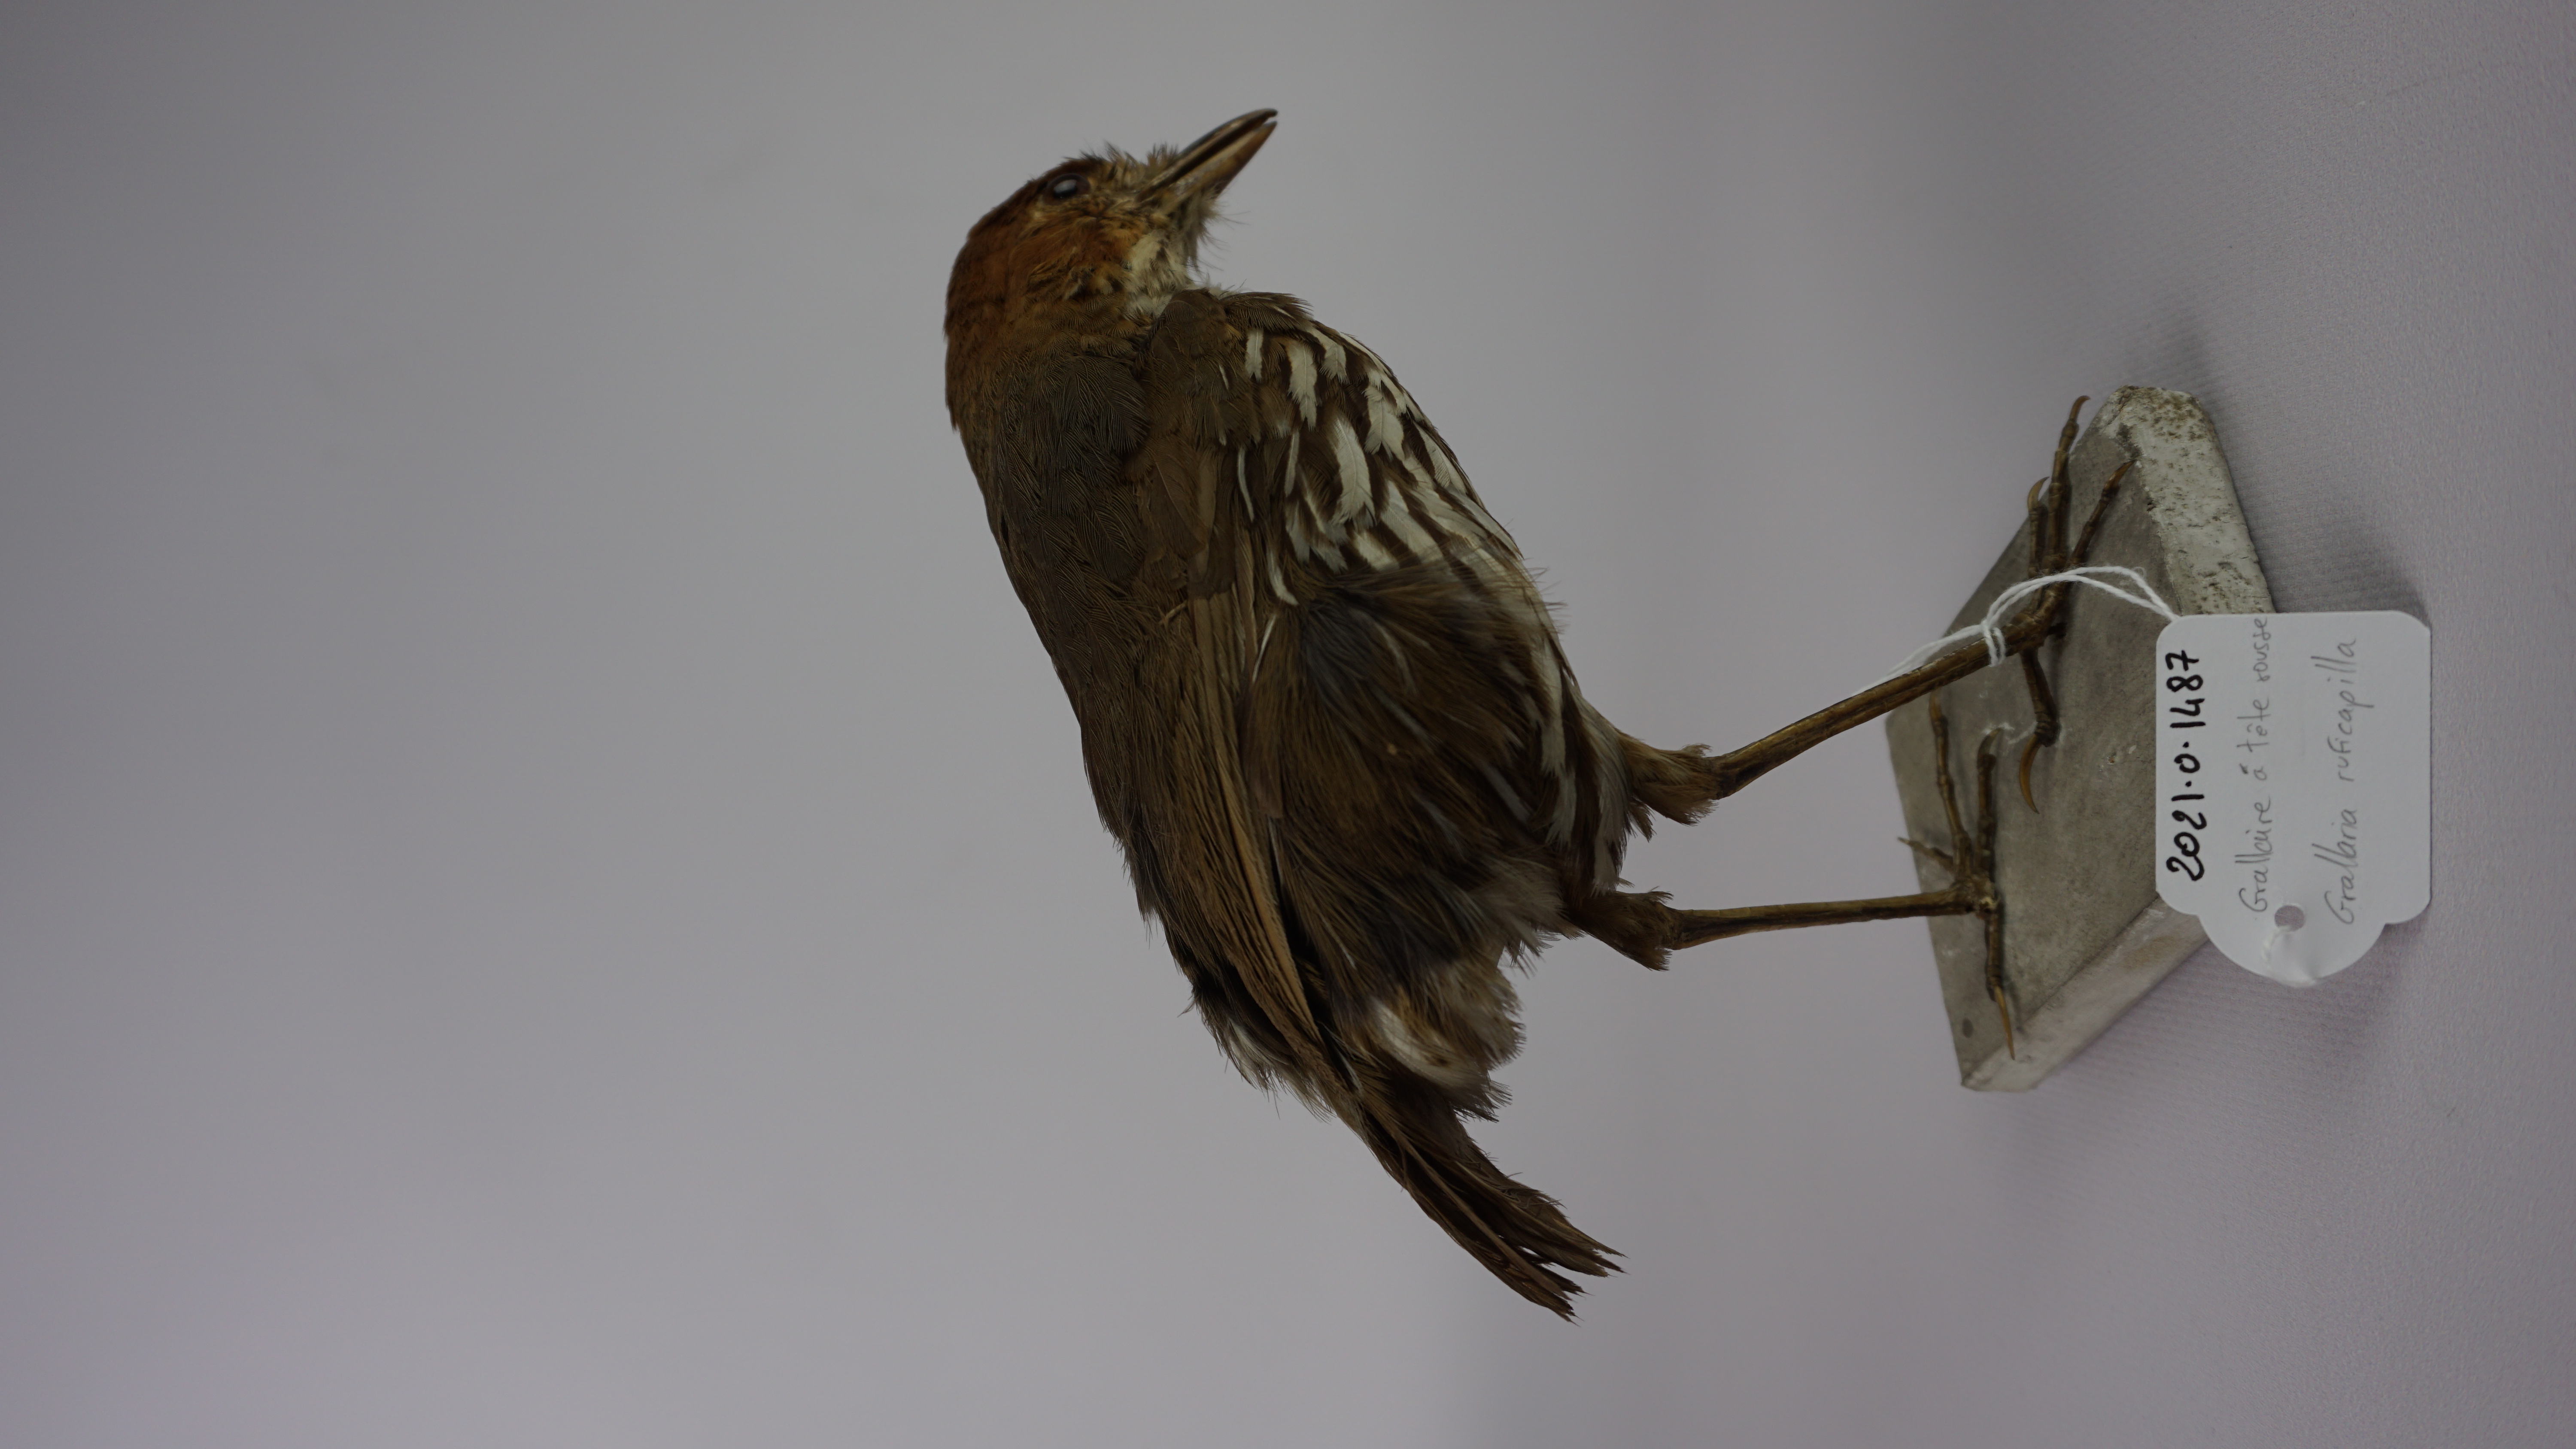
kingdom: Animalia
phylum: Chordata
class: Aves
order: Passeriformes
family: Grallariidae
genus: Grallaria
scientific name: Grallaria ruficapilla
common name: Chestnut-crowned antpitta
